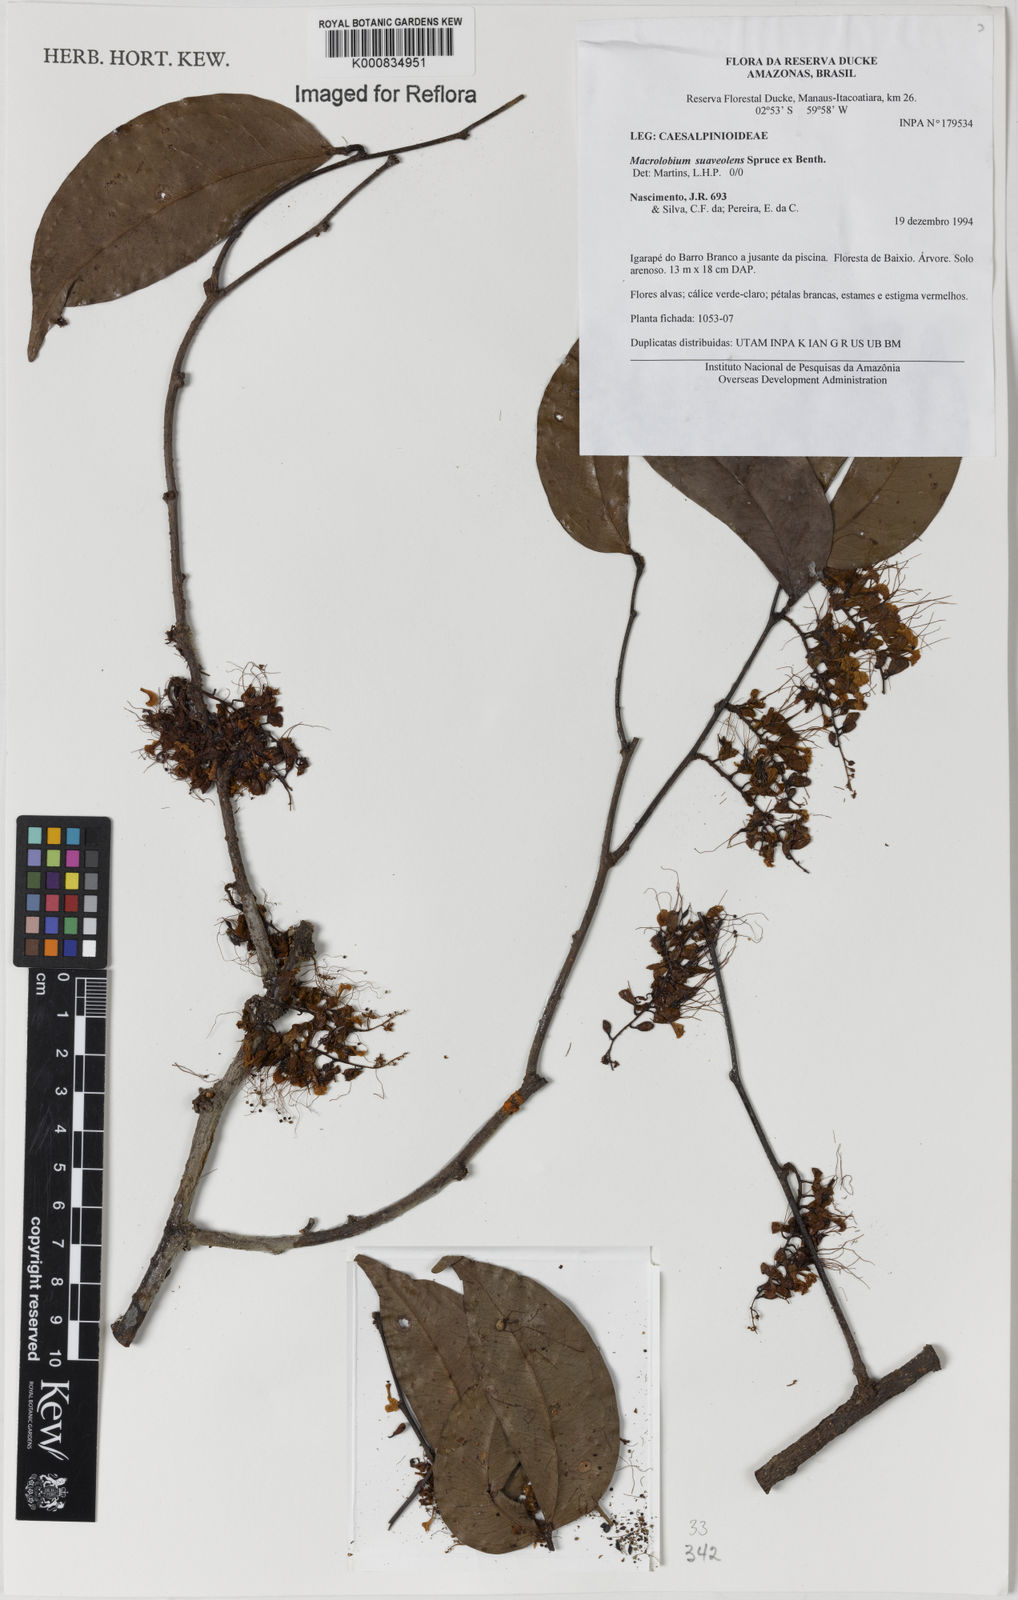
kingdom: Plantae
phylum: Tracheophyta
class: Magnoliopsida
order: Fabales
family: Fabaceae
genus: Macrolobium
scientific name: Macrolobium suaveolens
